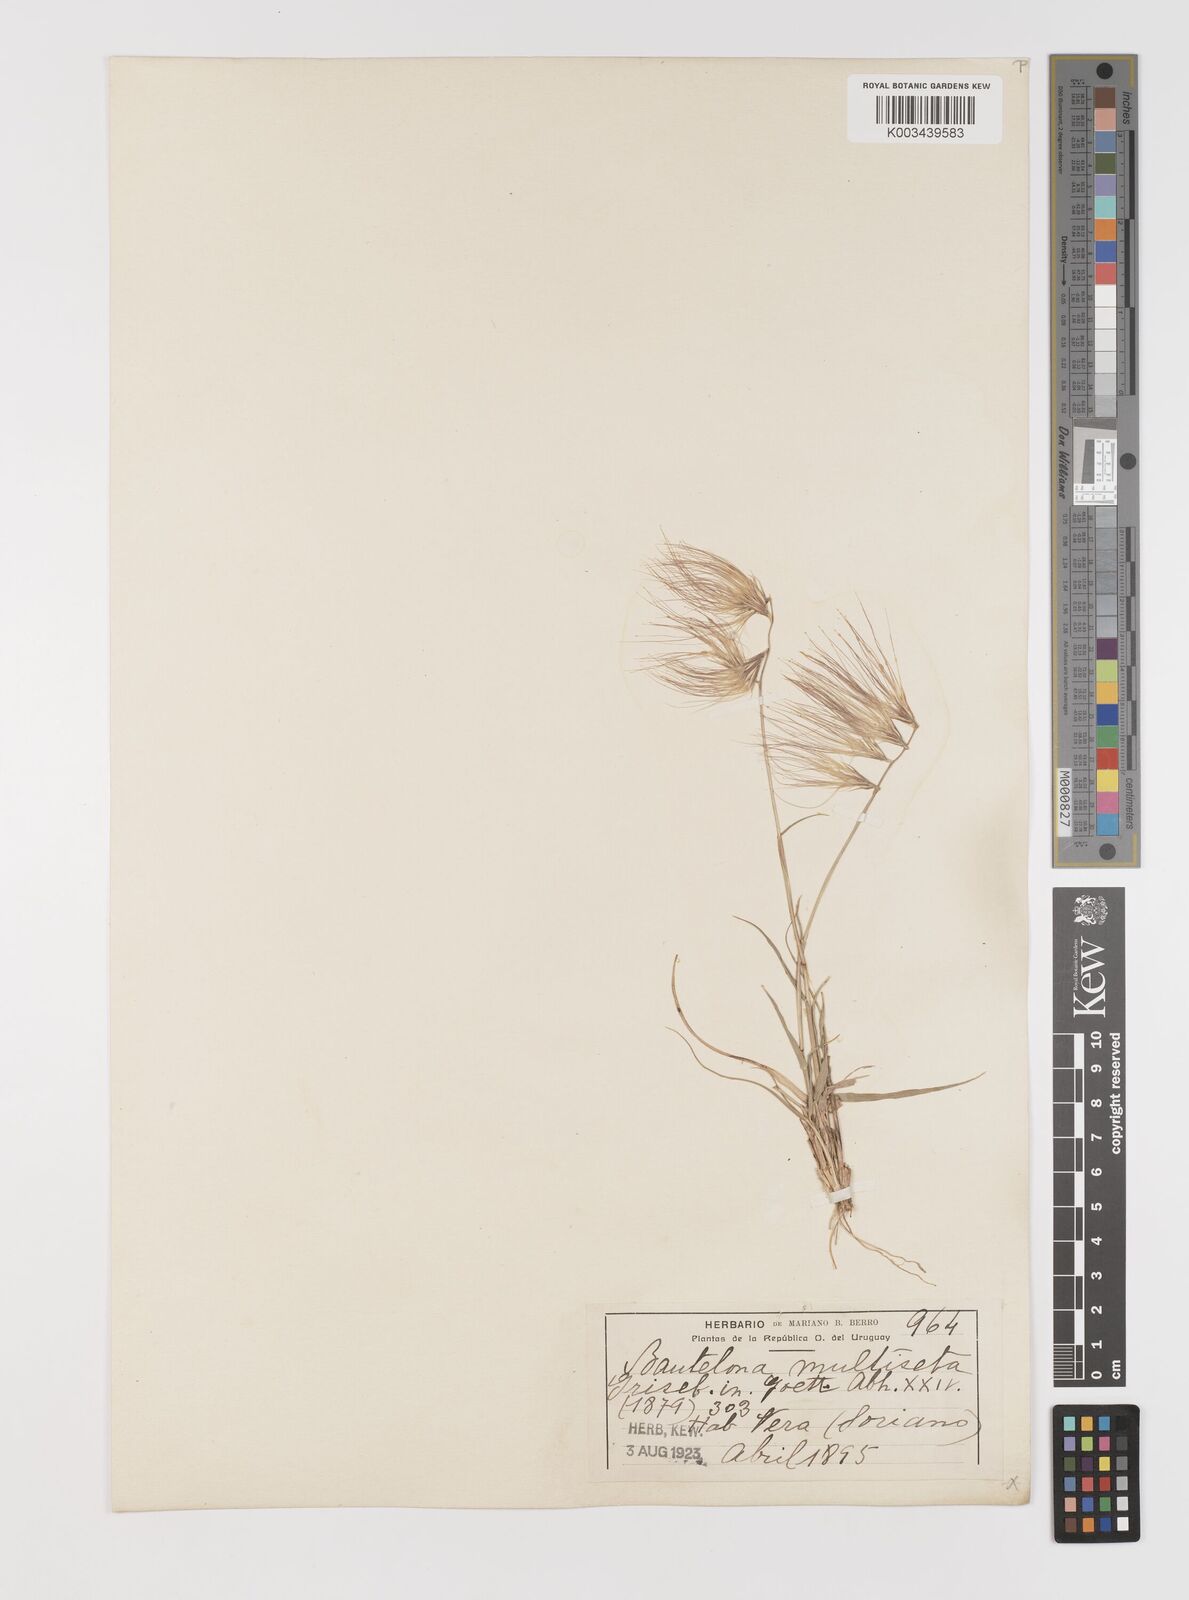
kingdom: Plantae
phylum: Tracheophyta
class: Liliopsida
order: Poales
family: Poaceae
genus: Bouteloua
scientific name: Bouteloua megapotamica
